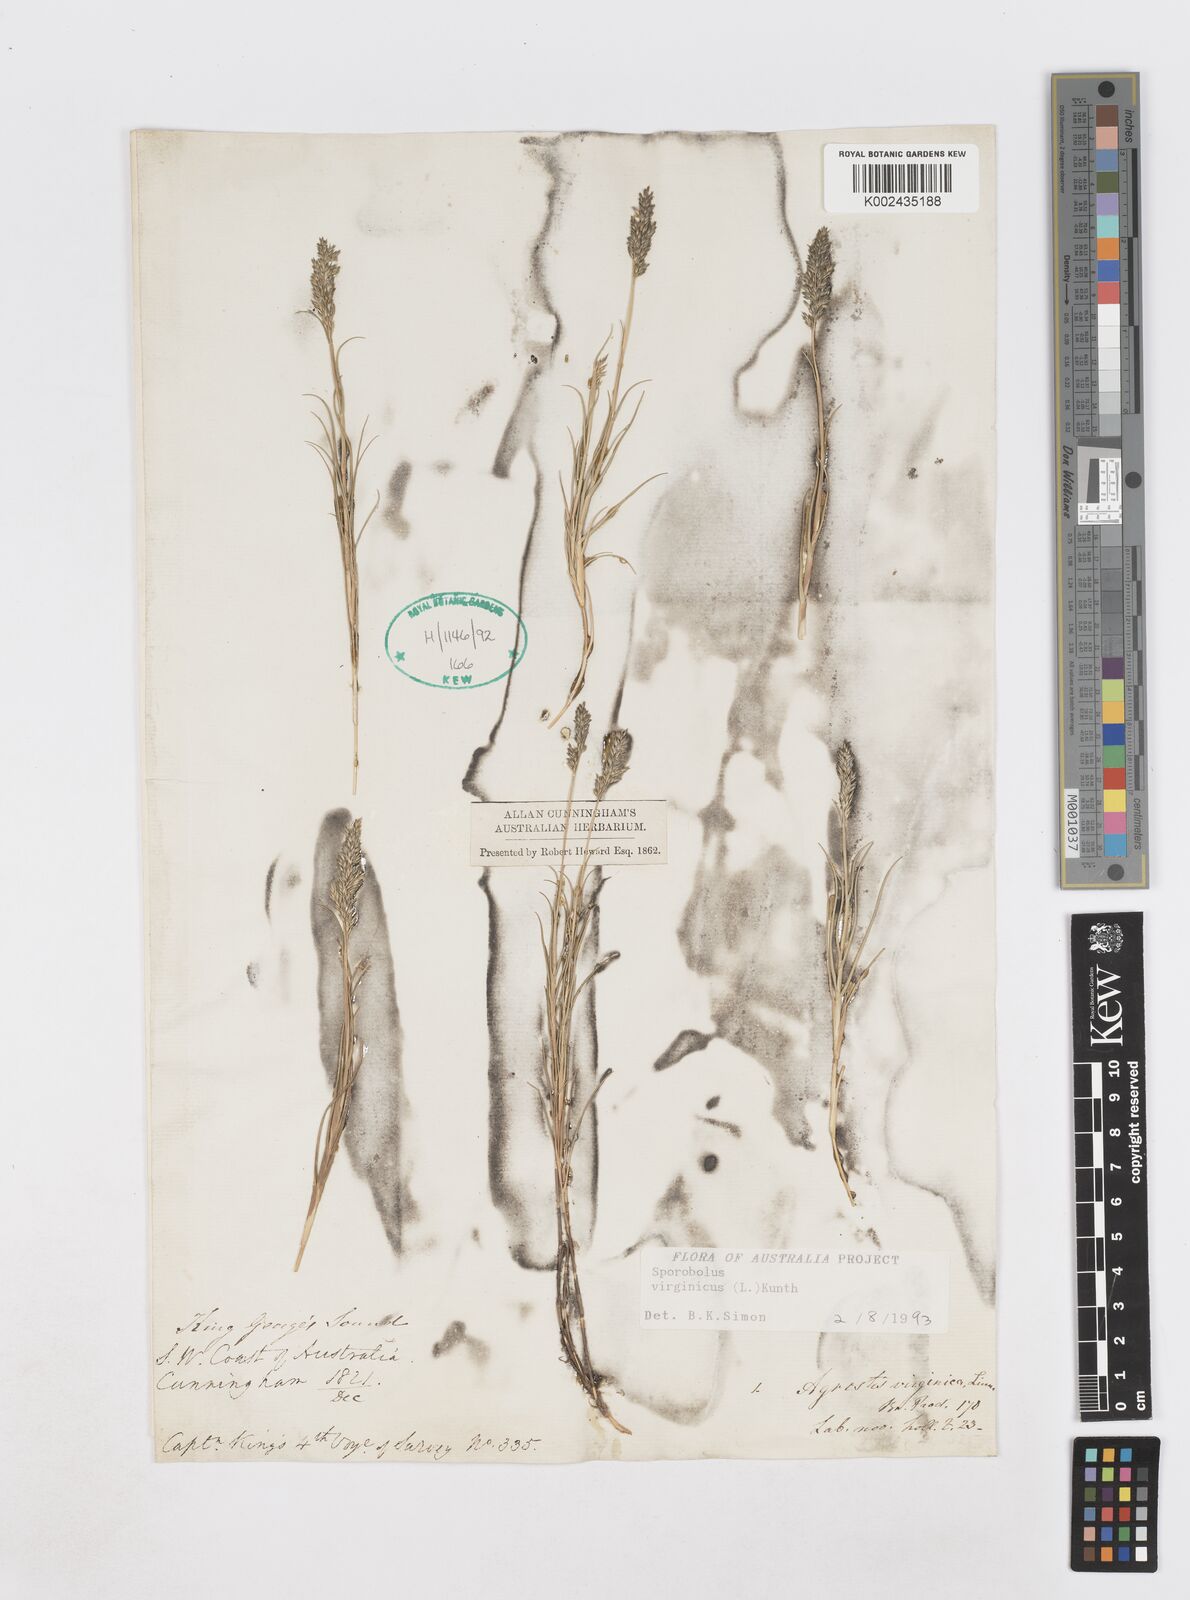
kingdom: Plantae
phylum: Tracheophyta
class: Liliopsida
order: Poales
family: Poaceae
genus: Sporobolus
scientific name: Sporobolus virginicus
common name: Beach dropseed
